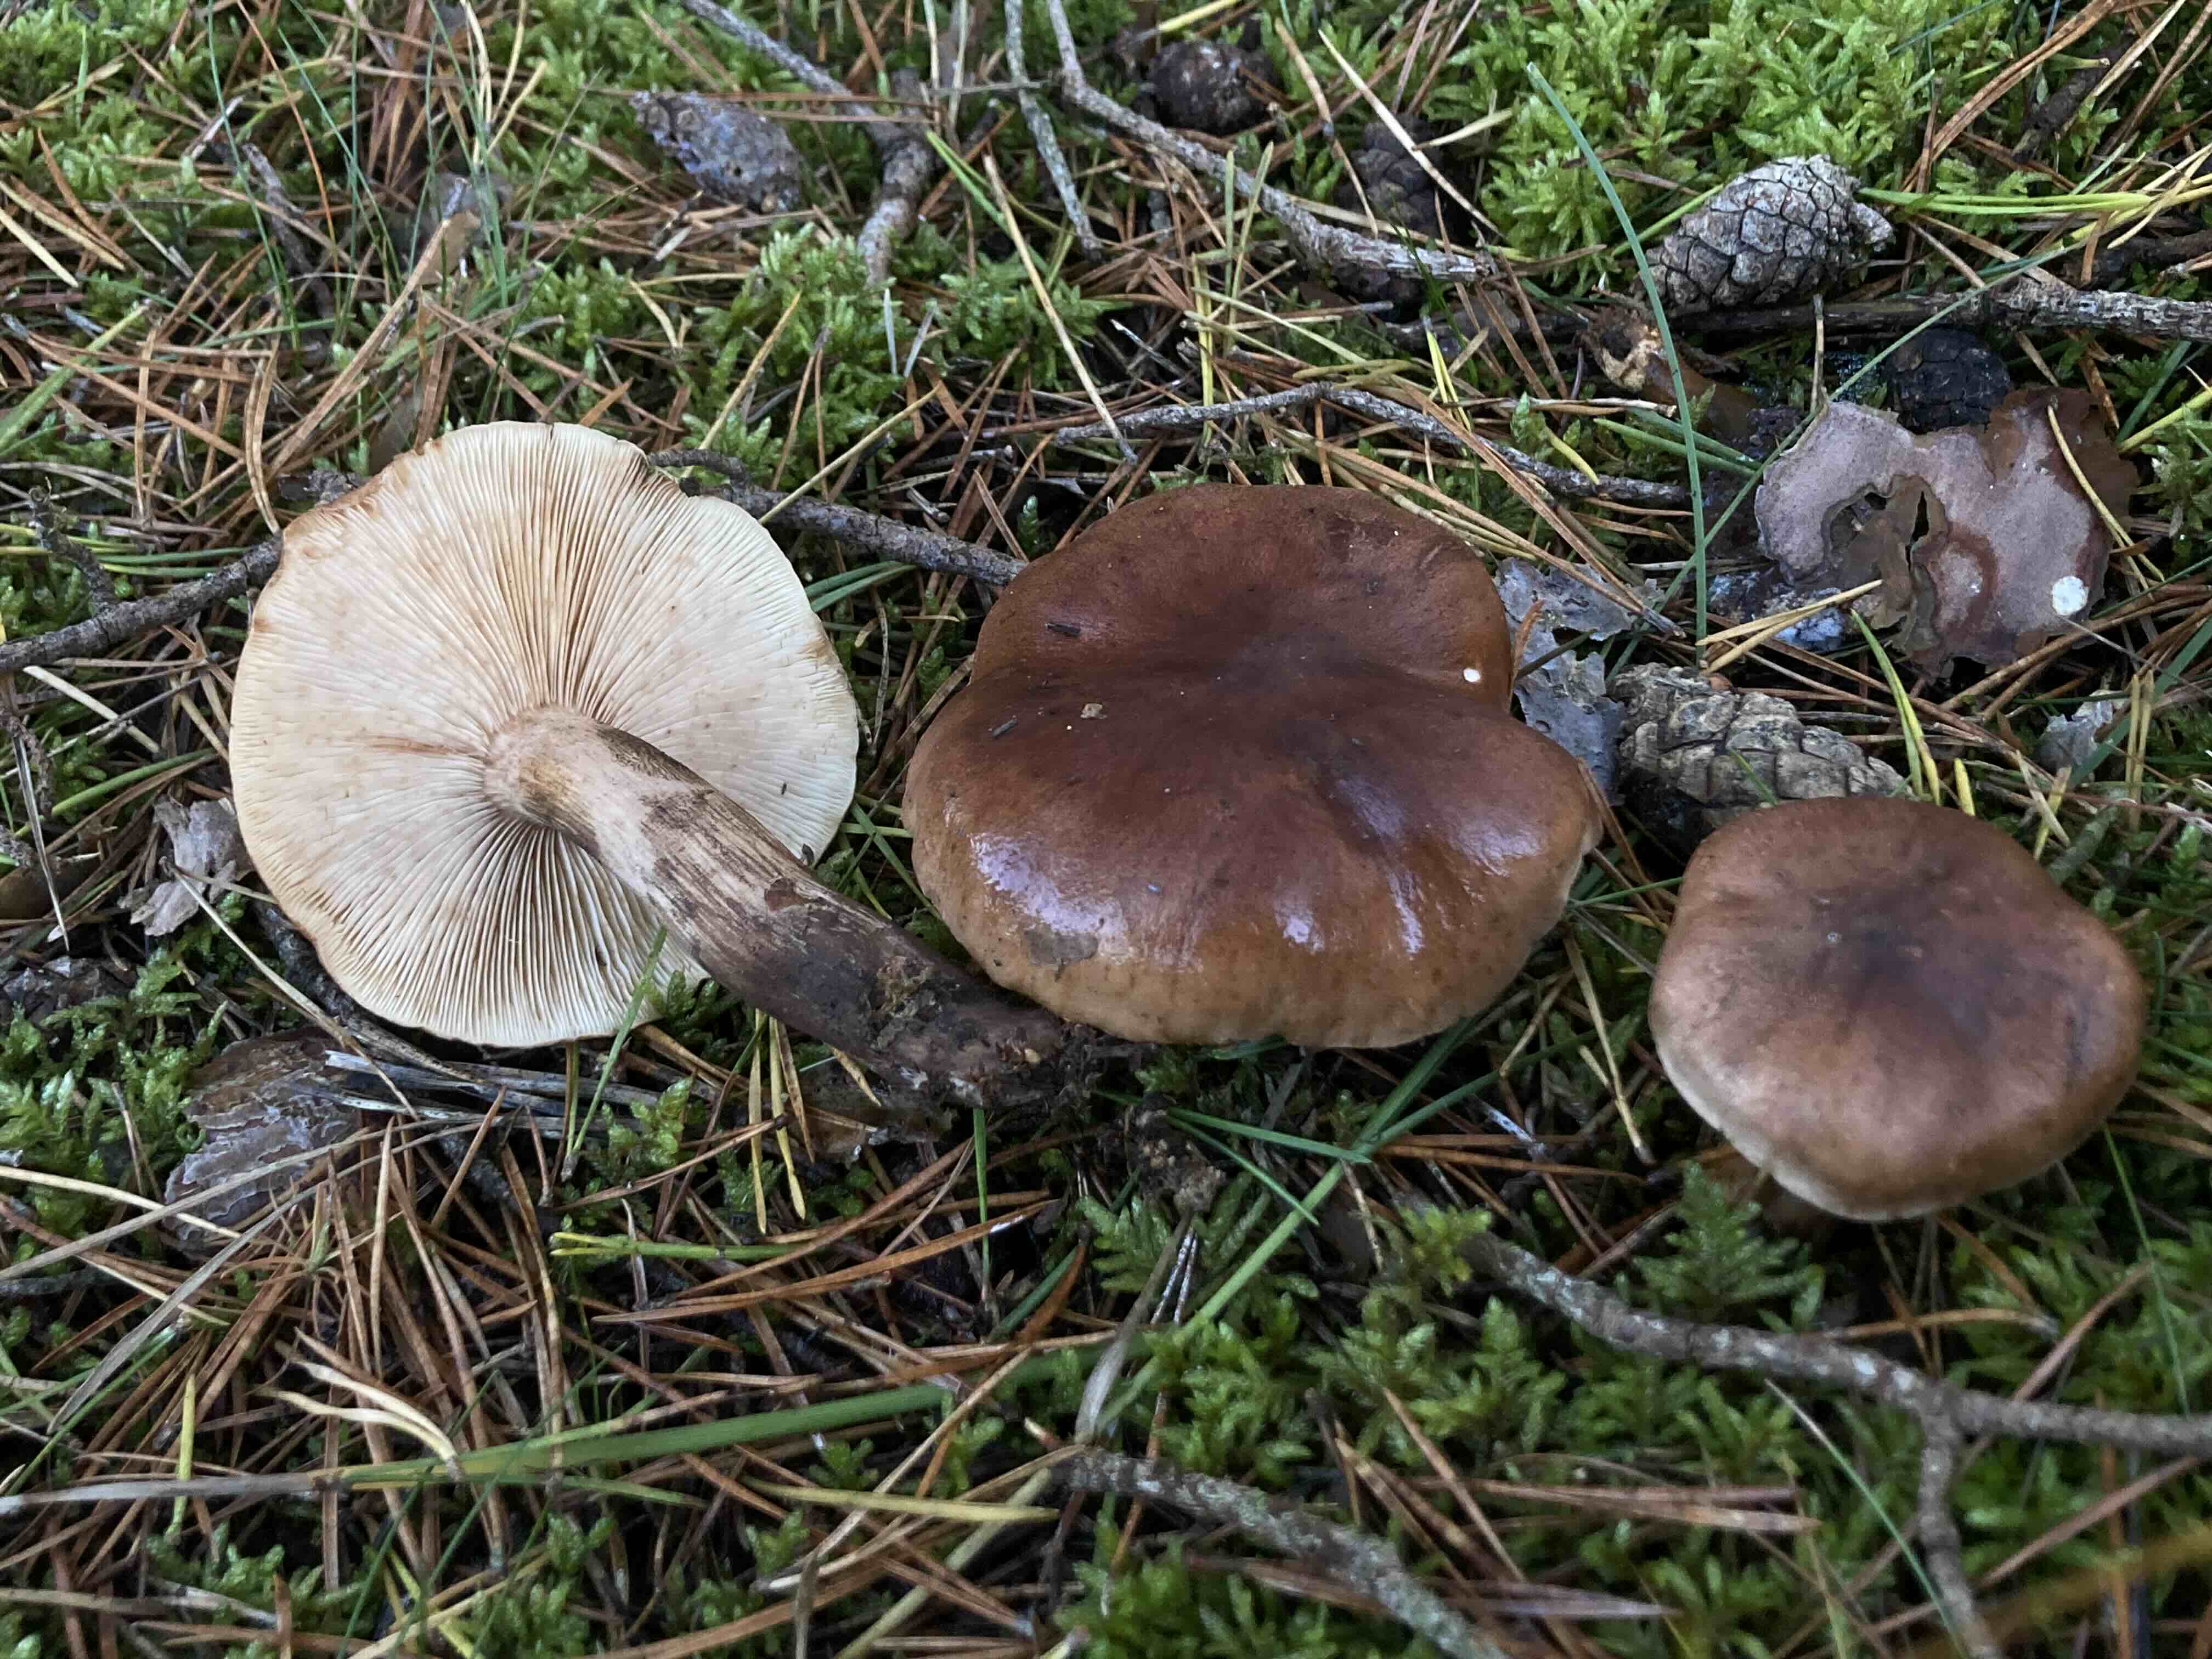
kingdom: Fungi
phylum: Basidiomycota
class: Agaricomycetes
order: Agaricales
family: Tricholomataceae
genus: Tricholoma
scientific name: Tricholoma albobrunneum
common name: kastanie-ridderhat
